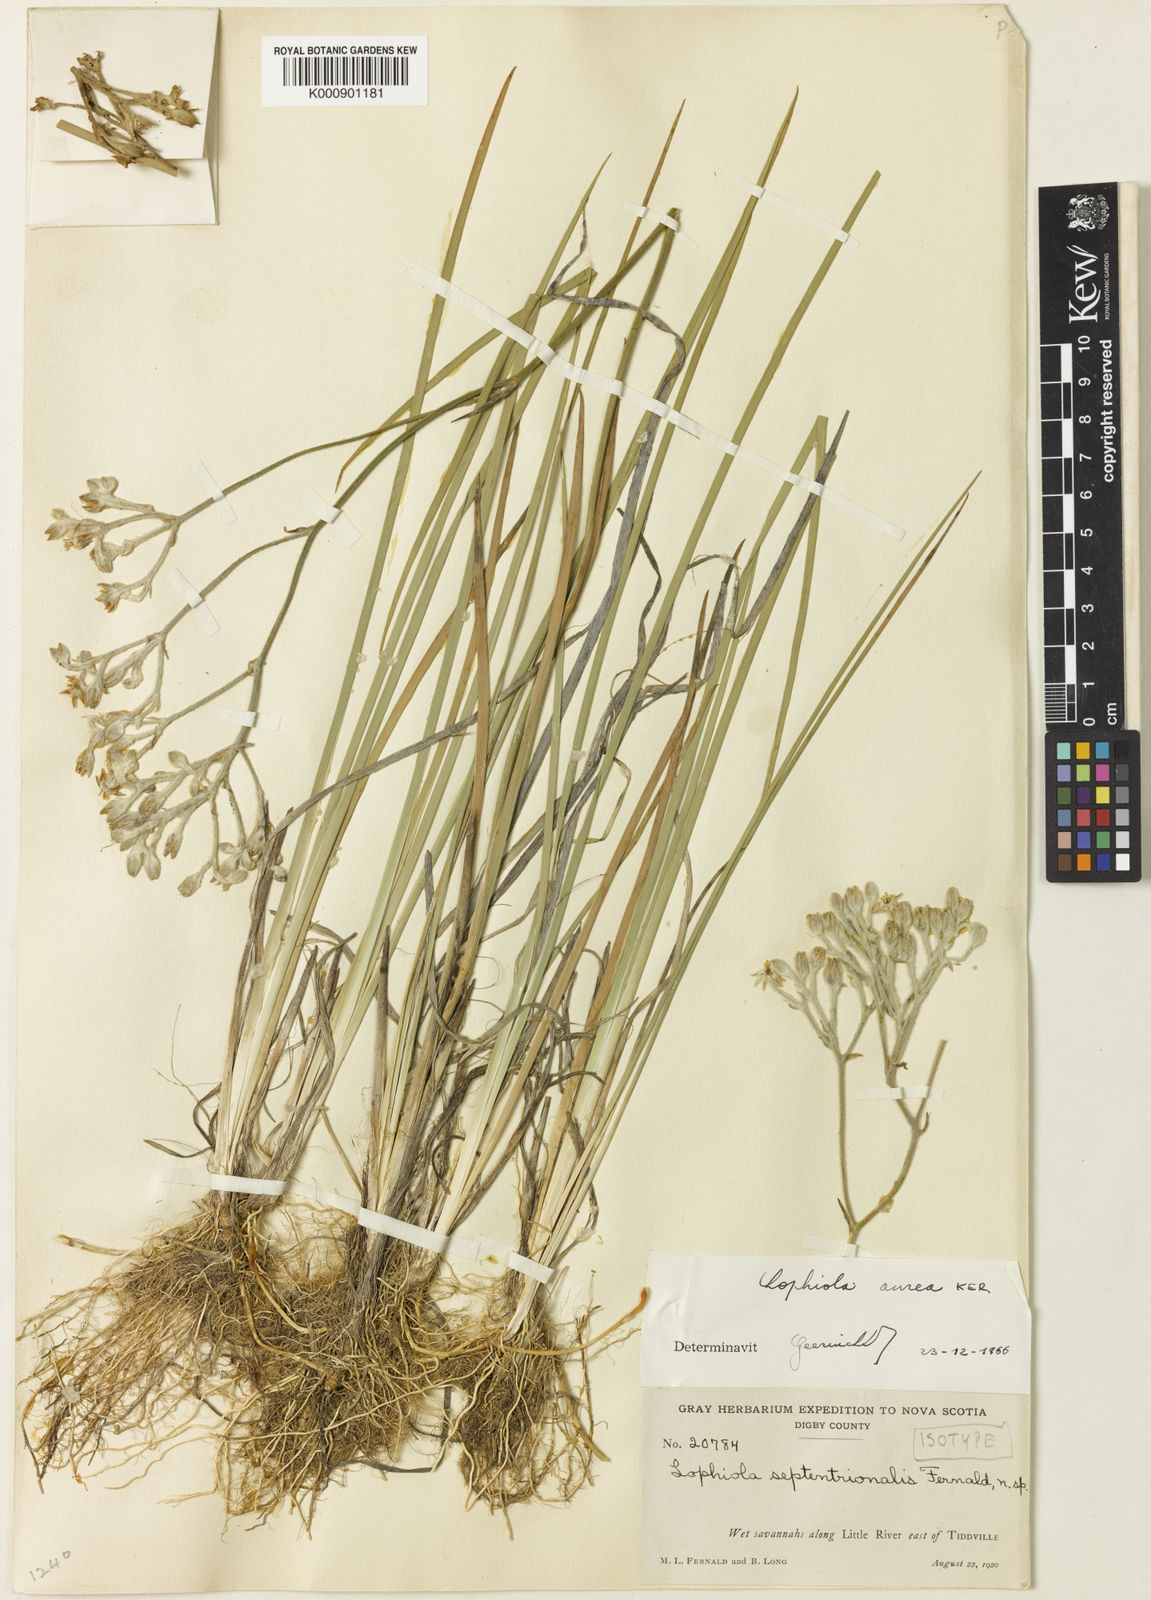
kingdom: Plantae
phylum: Tracheophyta
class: Liliopsida
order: Dioscoreales
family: Nartheciaceae
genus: Lophiola
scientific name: Lophiola aurea
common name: Golden-crest
